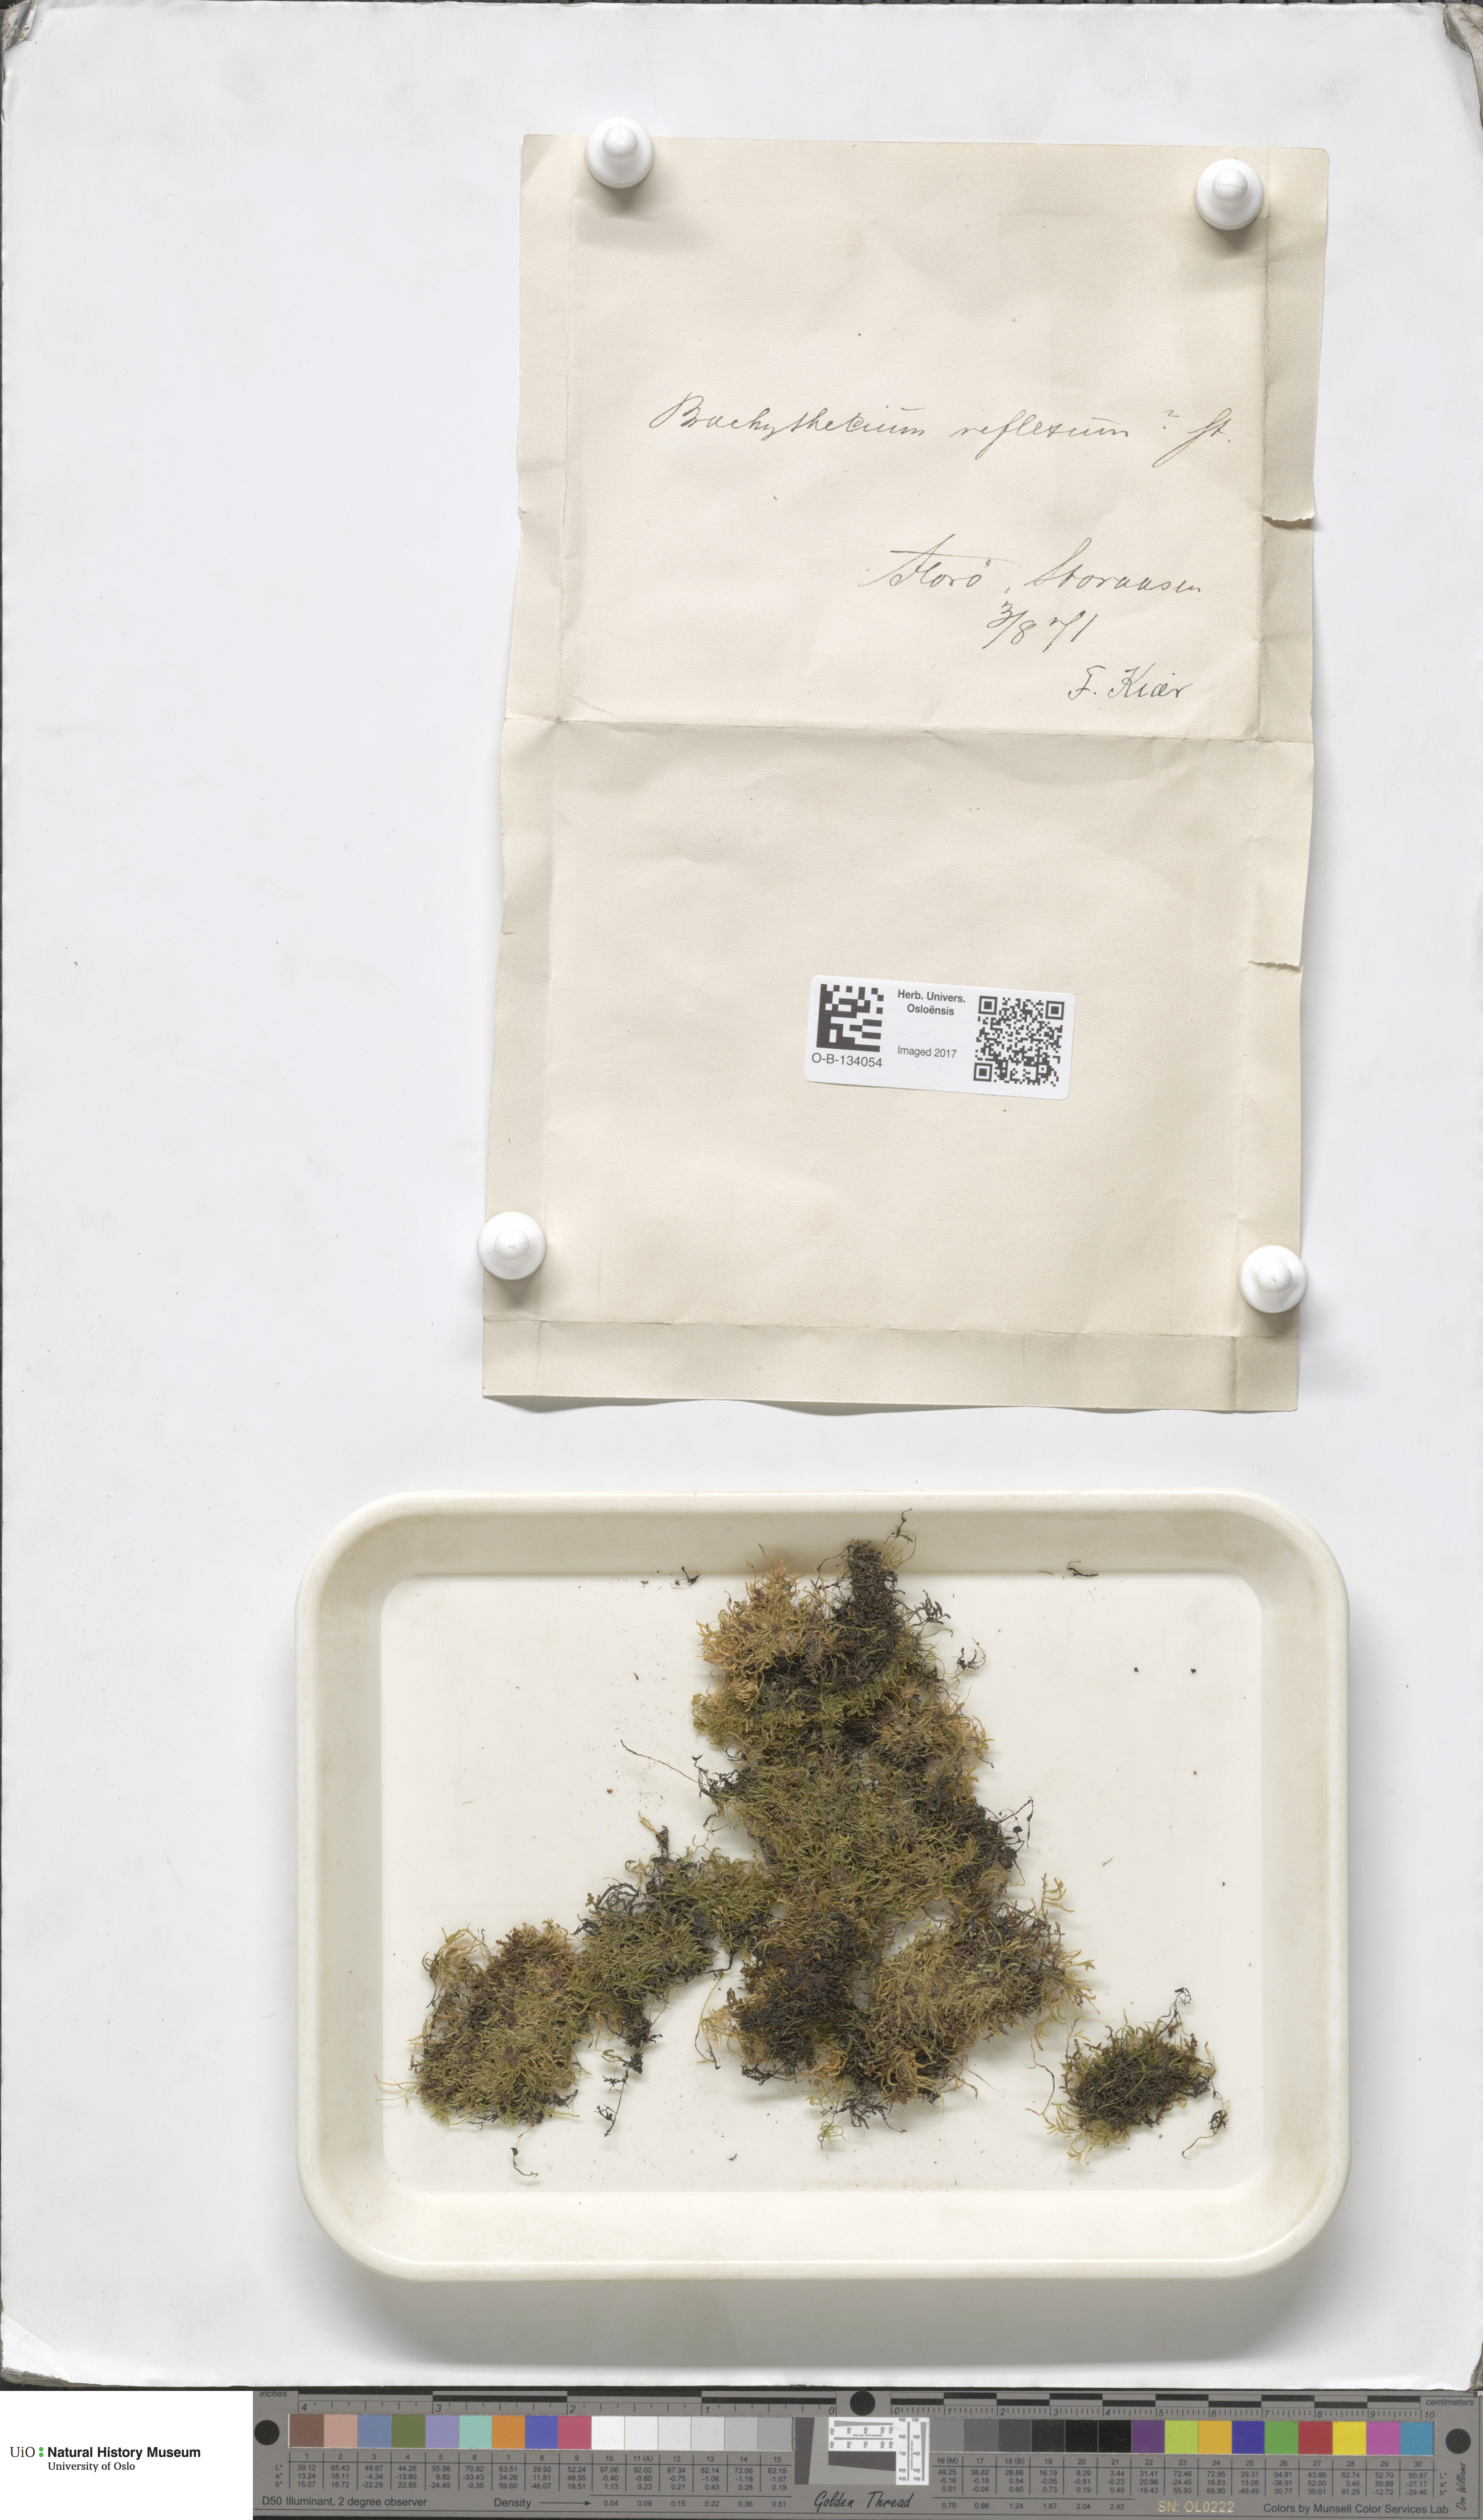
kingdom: Plantae
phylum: Bryophyta
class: Bryopsida
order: Hypnales
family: Brachytheciaceae
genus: Sciuro-hypnum
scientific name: Sciuro-hypnum reflexum
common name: Reflexed feather-moss
